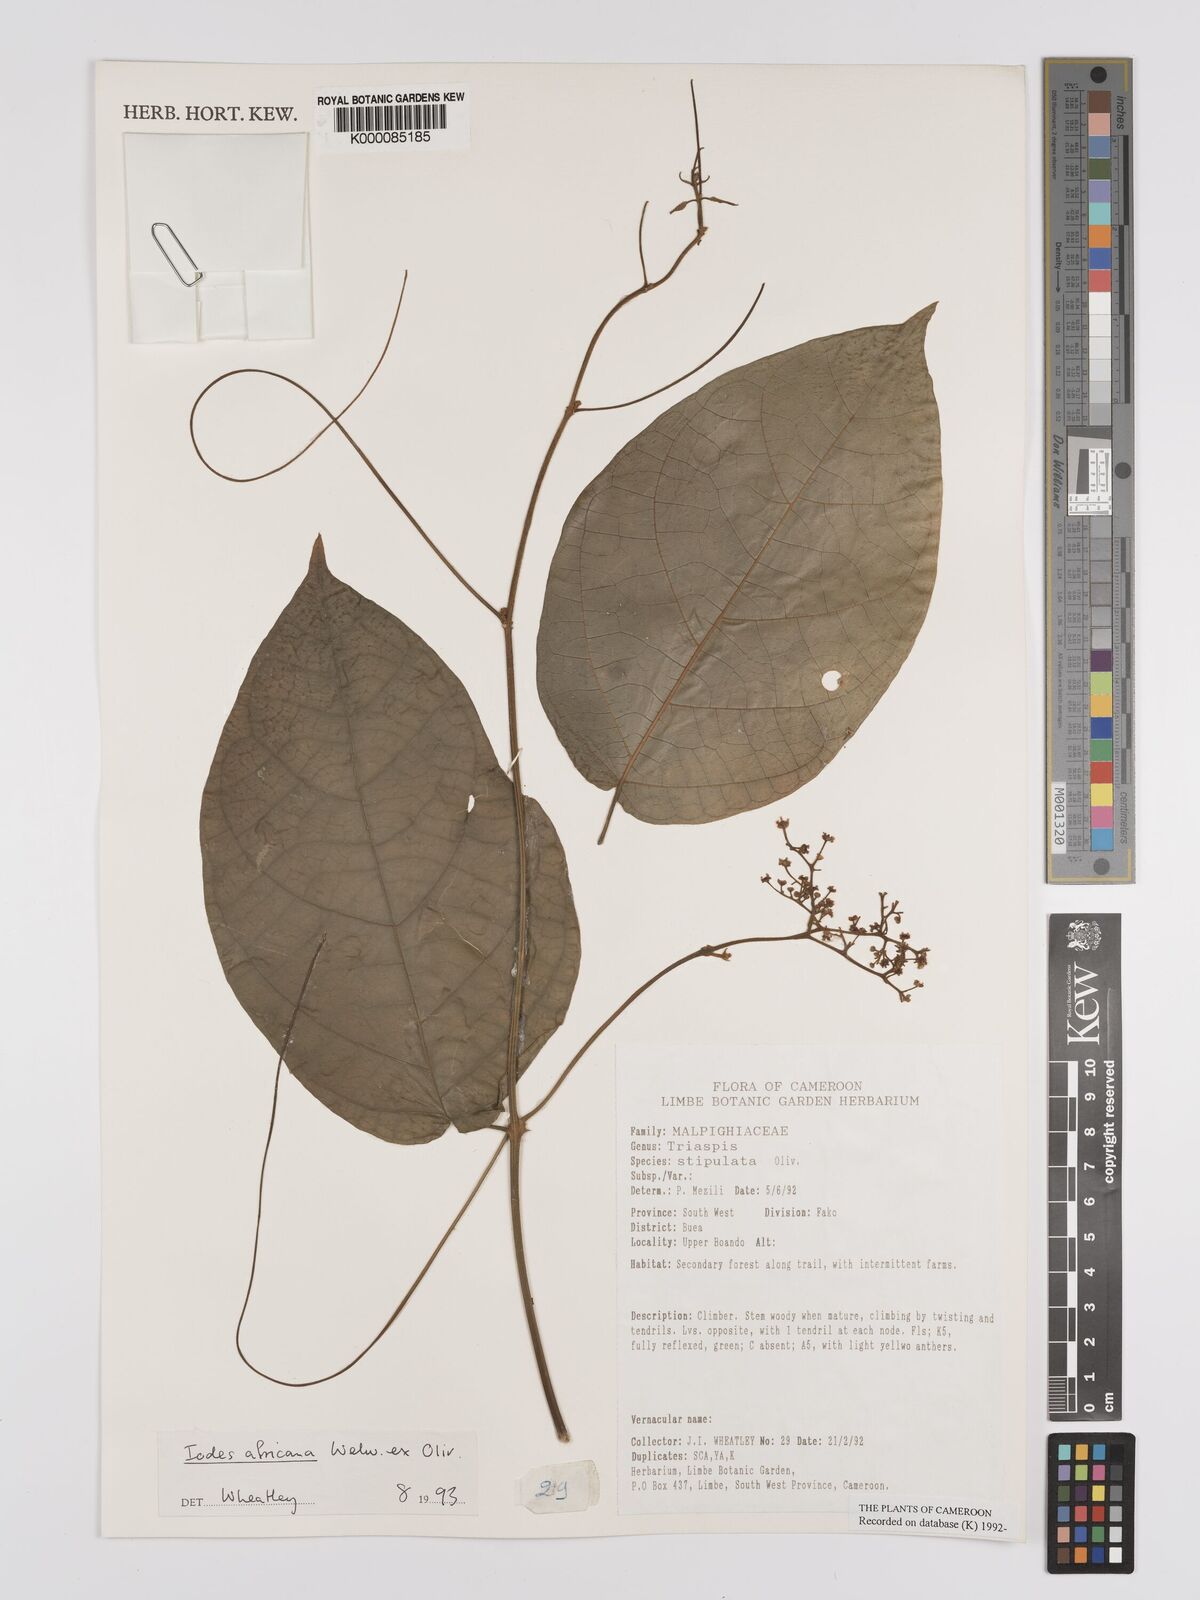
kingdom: Plantae
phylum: Tracheophyta
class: Magnoliopsida
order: Icacinales
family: Icacinaceae
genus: Iodes
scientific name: Iodes africana
